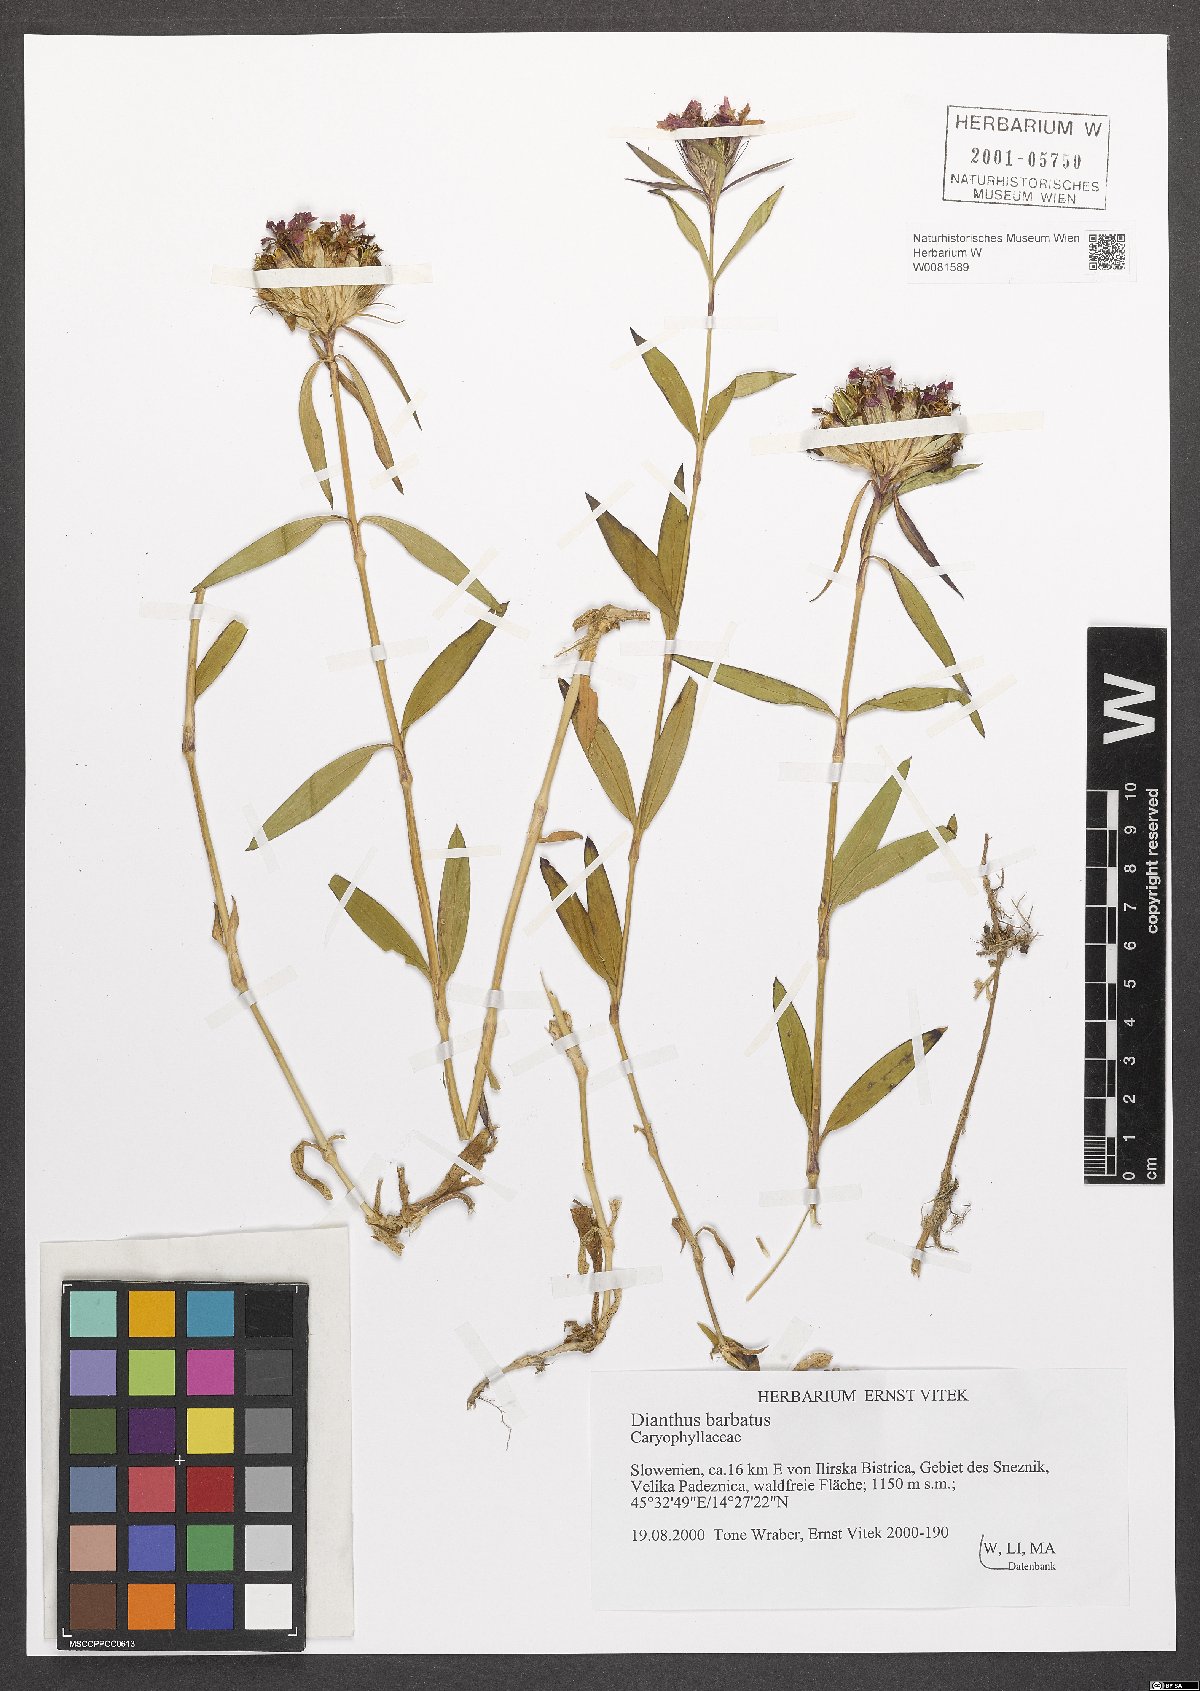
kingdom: Plantae
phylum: Tracheophyta
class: Magnoliopsida
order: Caryophyllales
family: Caryophyllaceae
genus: Dianthus
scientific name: Dianthus barbatus
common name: Sweet-william
